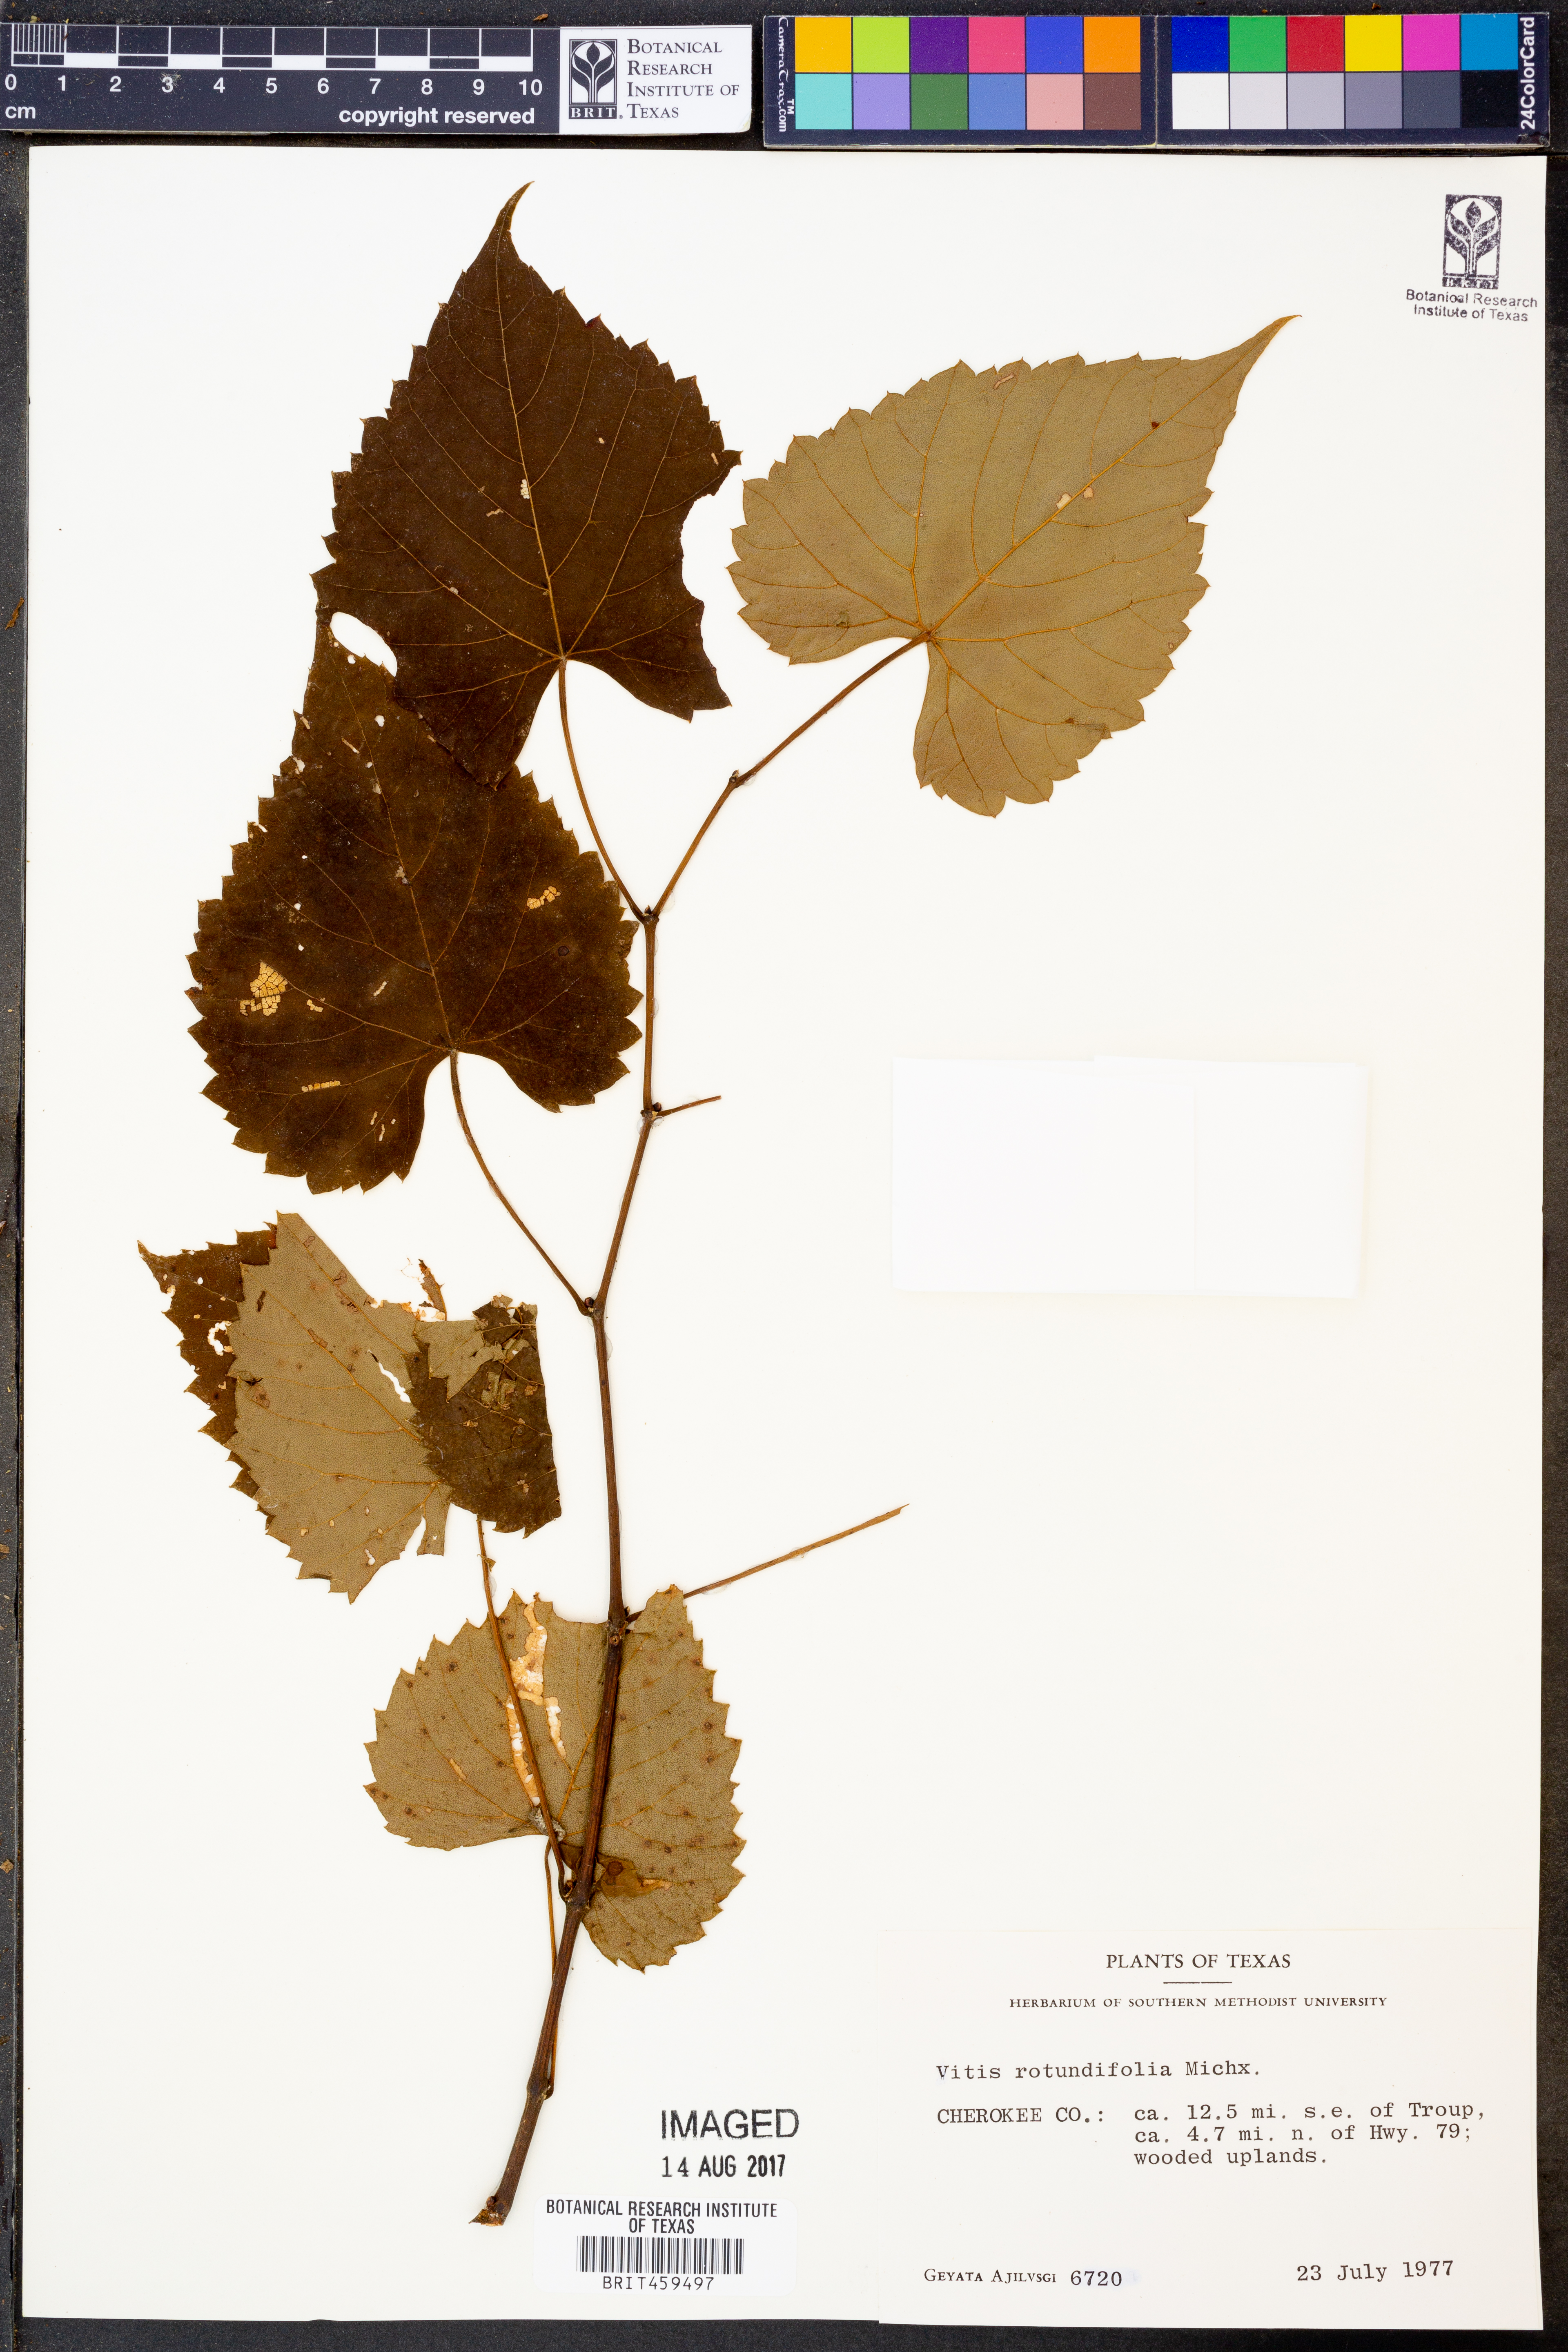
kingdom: Plantae
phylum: Tracheophyta
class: Magnoliopsida
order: Vitales
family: Vitaceae
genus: Vitis
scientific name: Vitis rotundifolia
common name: Muscadine grape
